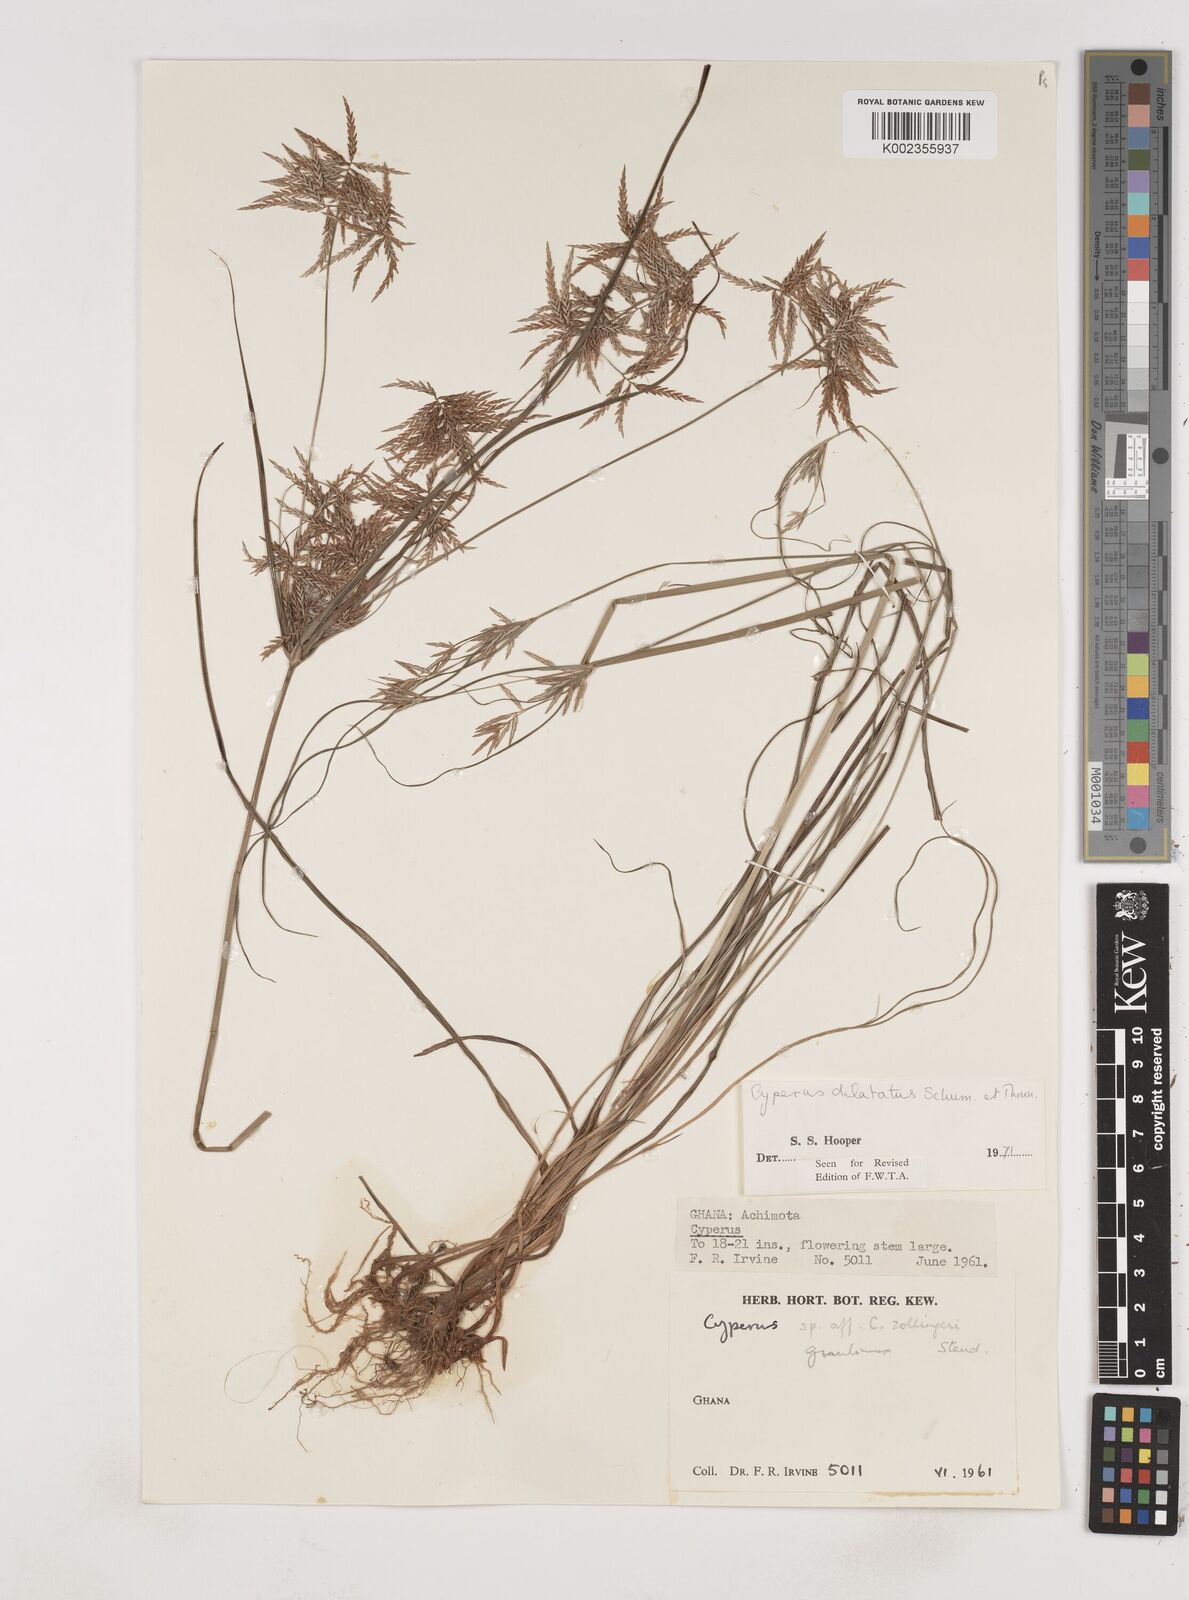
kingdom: Plantae
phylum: Tracheophyta
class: Liliopsida
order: Poales
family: Cyperaceae
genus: Cyperus
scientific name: Cyperus dilatatus
